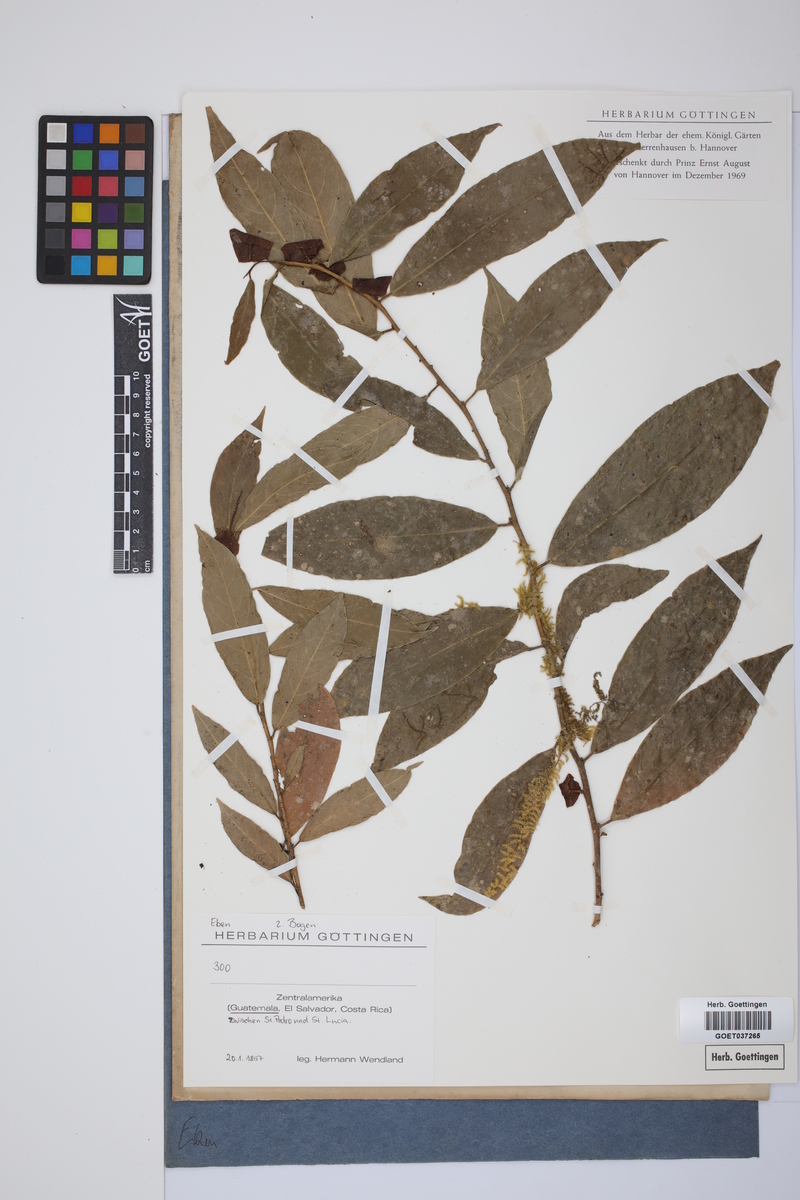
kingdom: Plantae
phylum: Tracheophyta
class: Magnoliopsida
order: Ericales
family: Ebenaceae
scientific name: Ebenaceae
